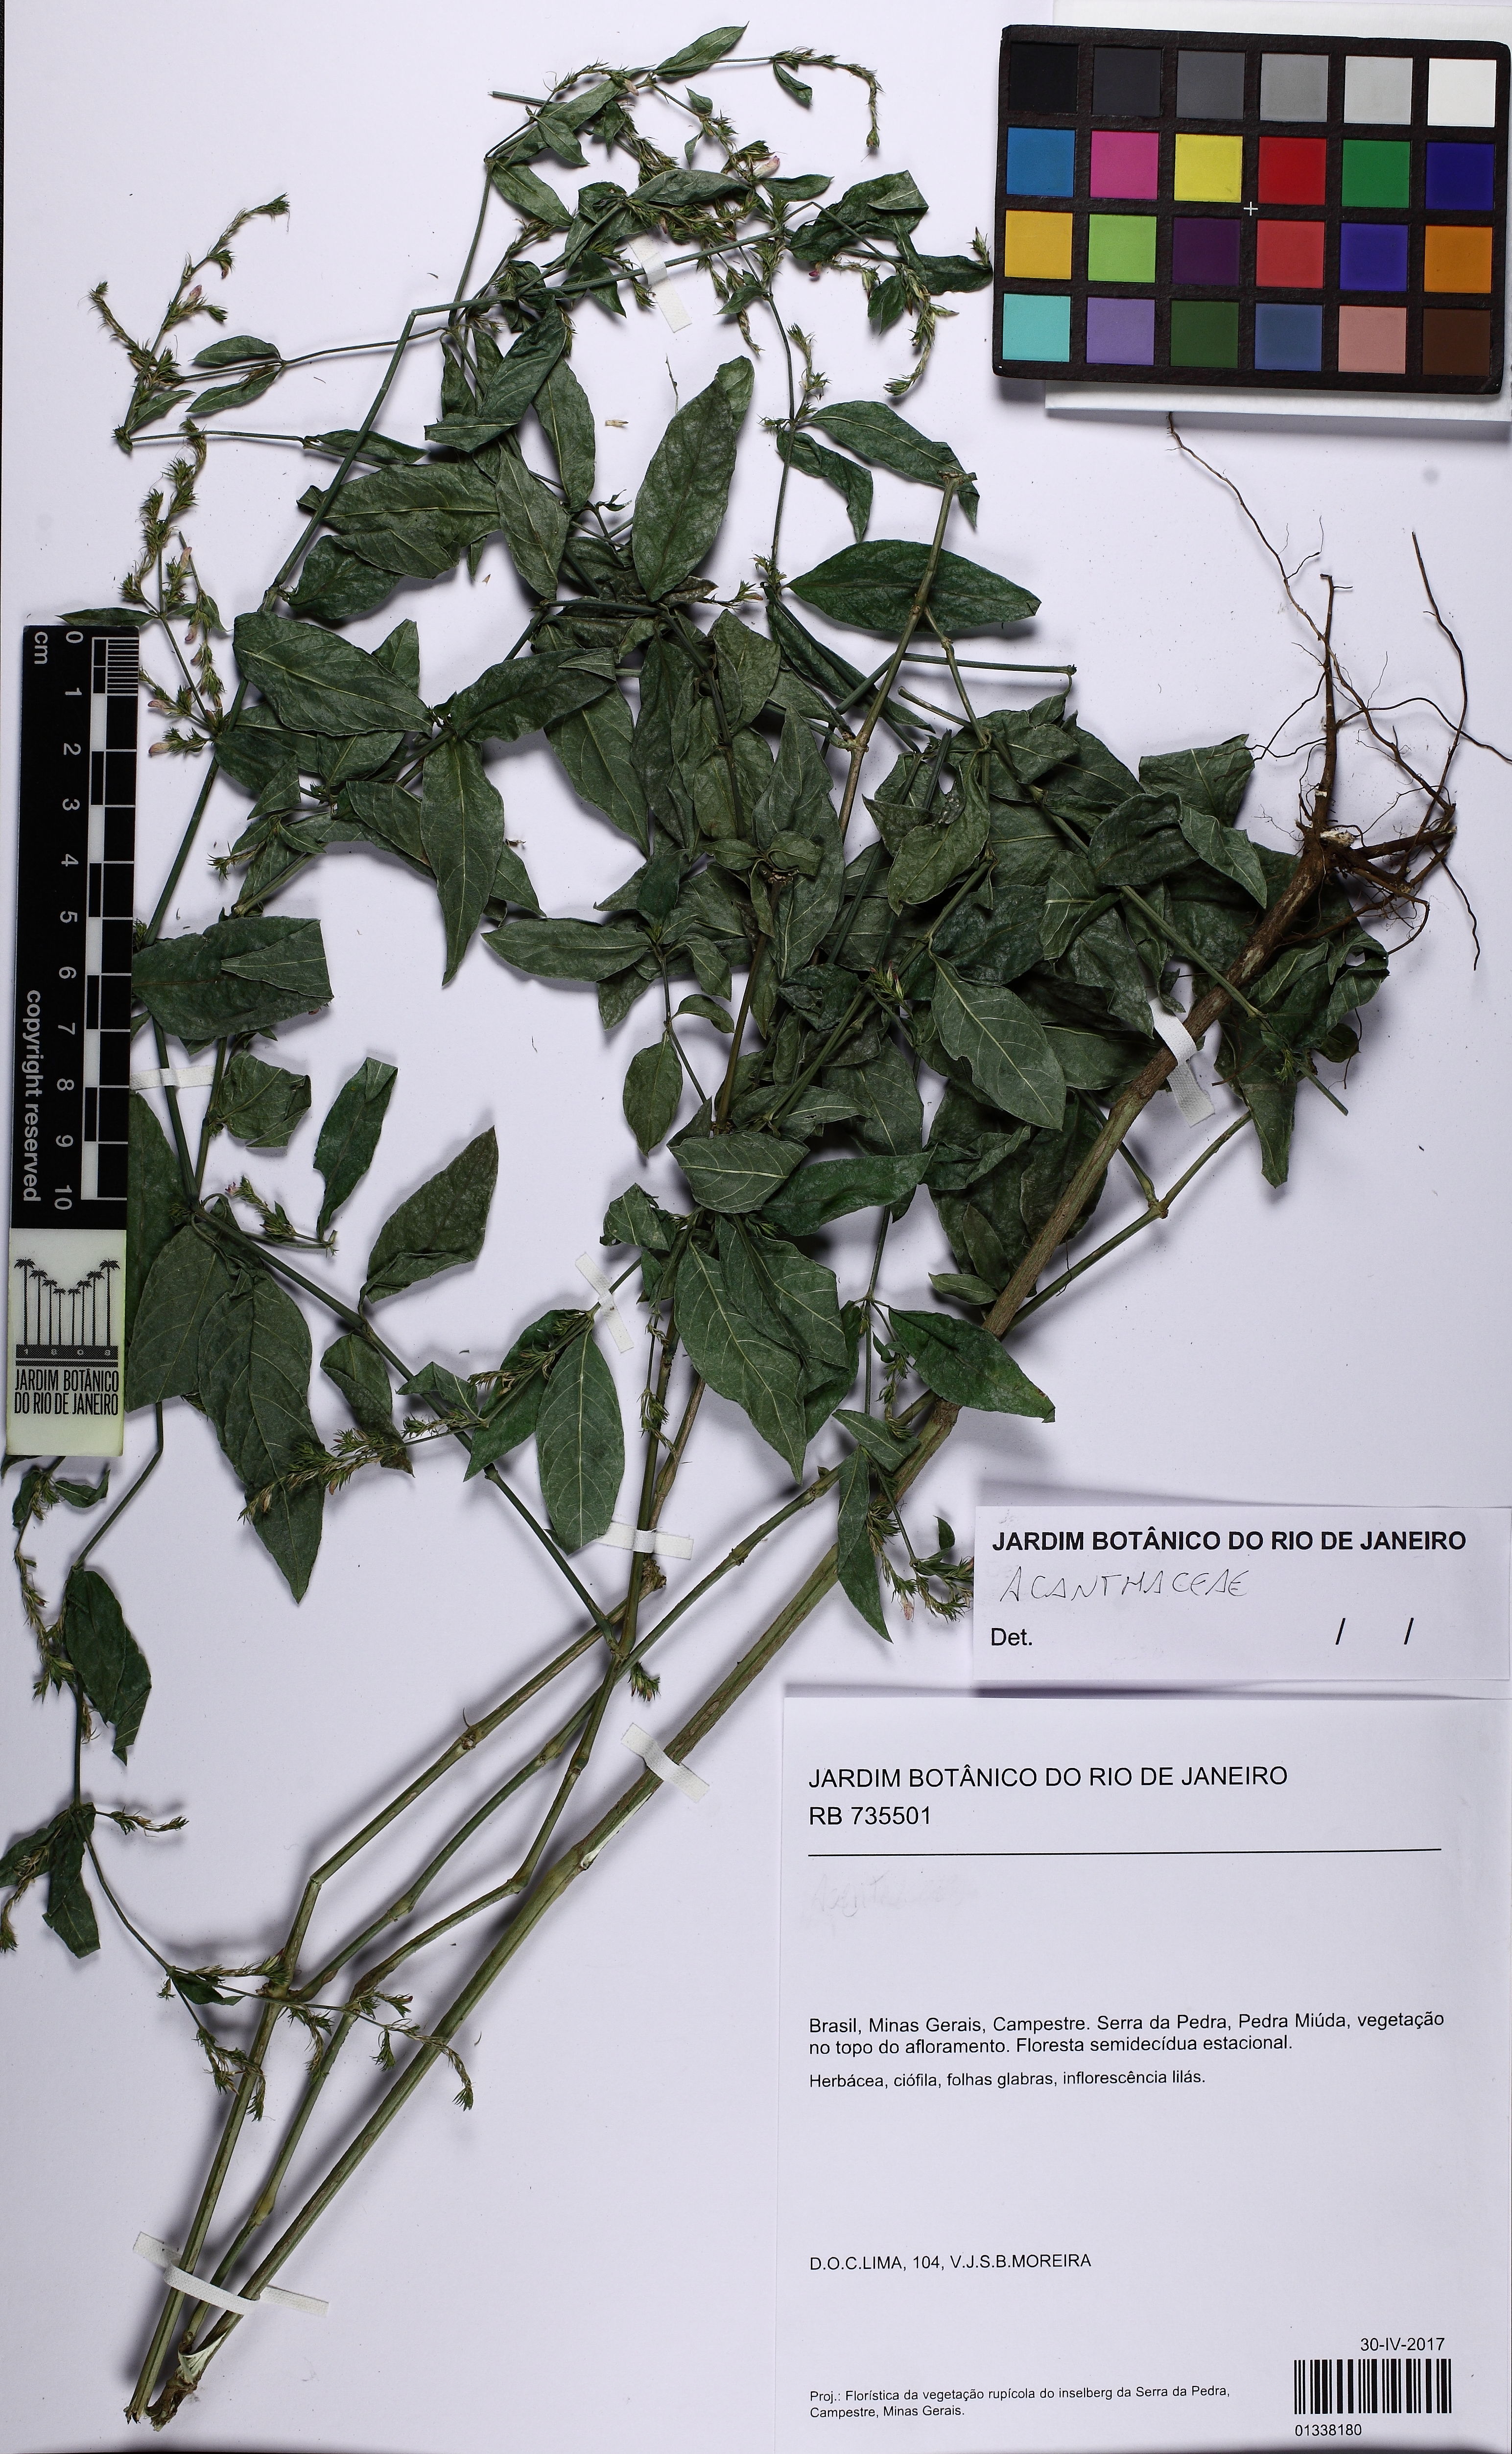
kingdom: Plantae
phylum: Tracheophyta
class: Magnoliopsida
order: Lamiales
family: Acanthaceae
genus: Justicia
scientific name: Justicia
